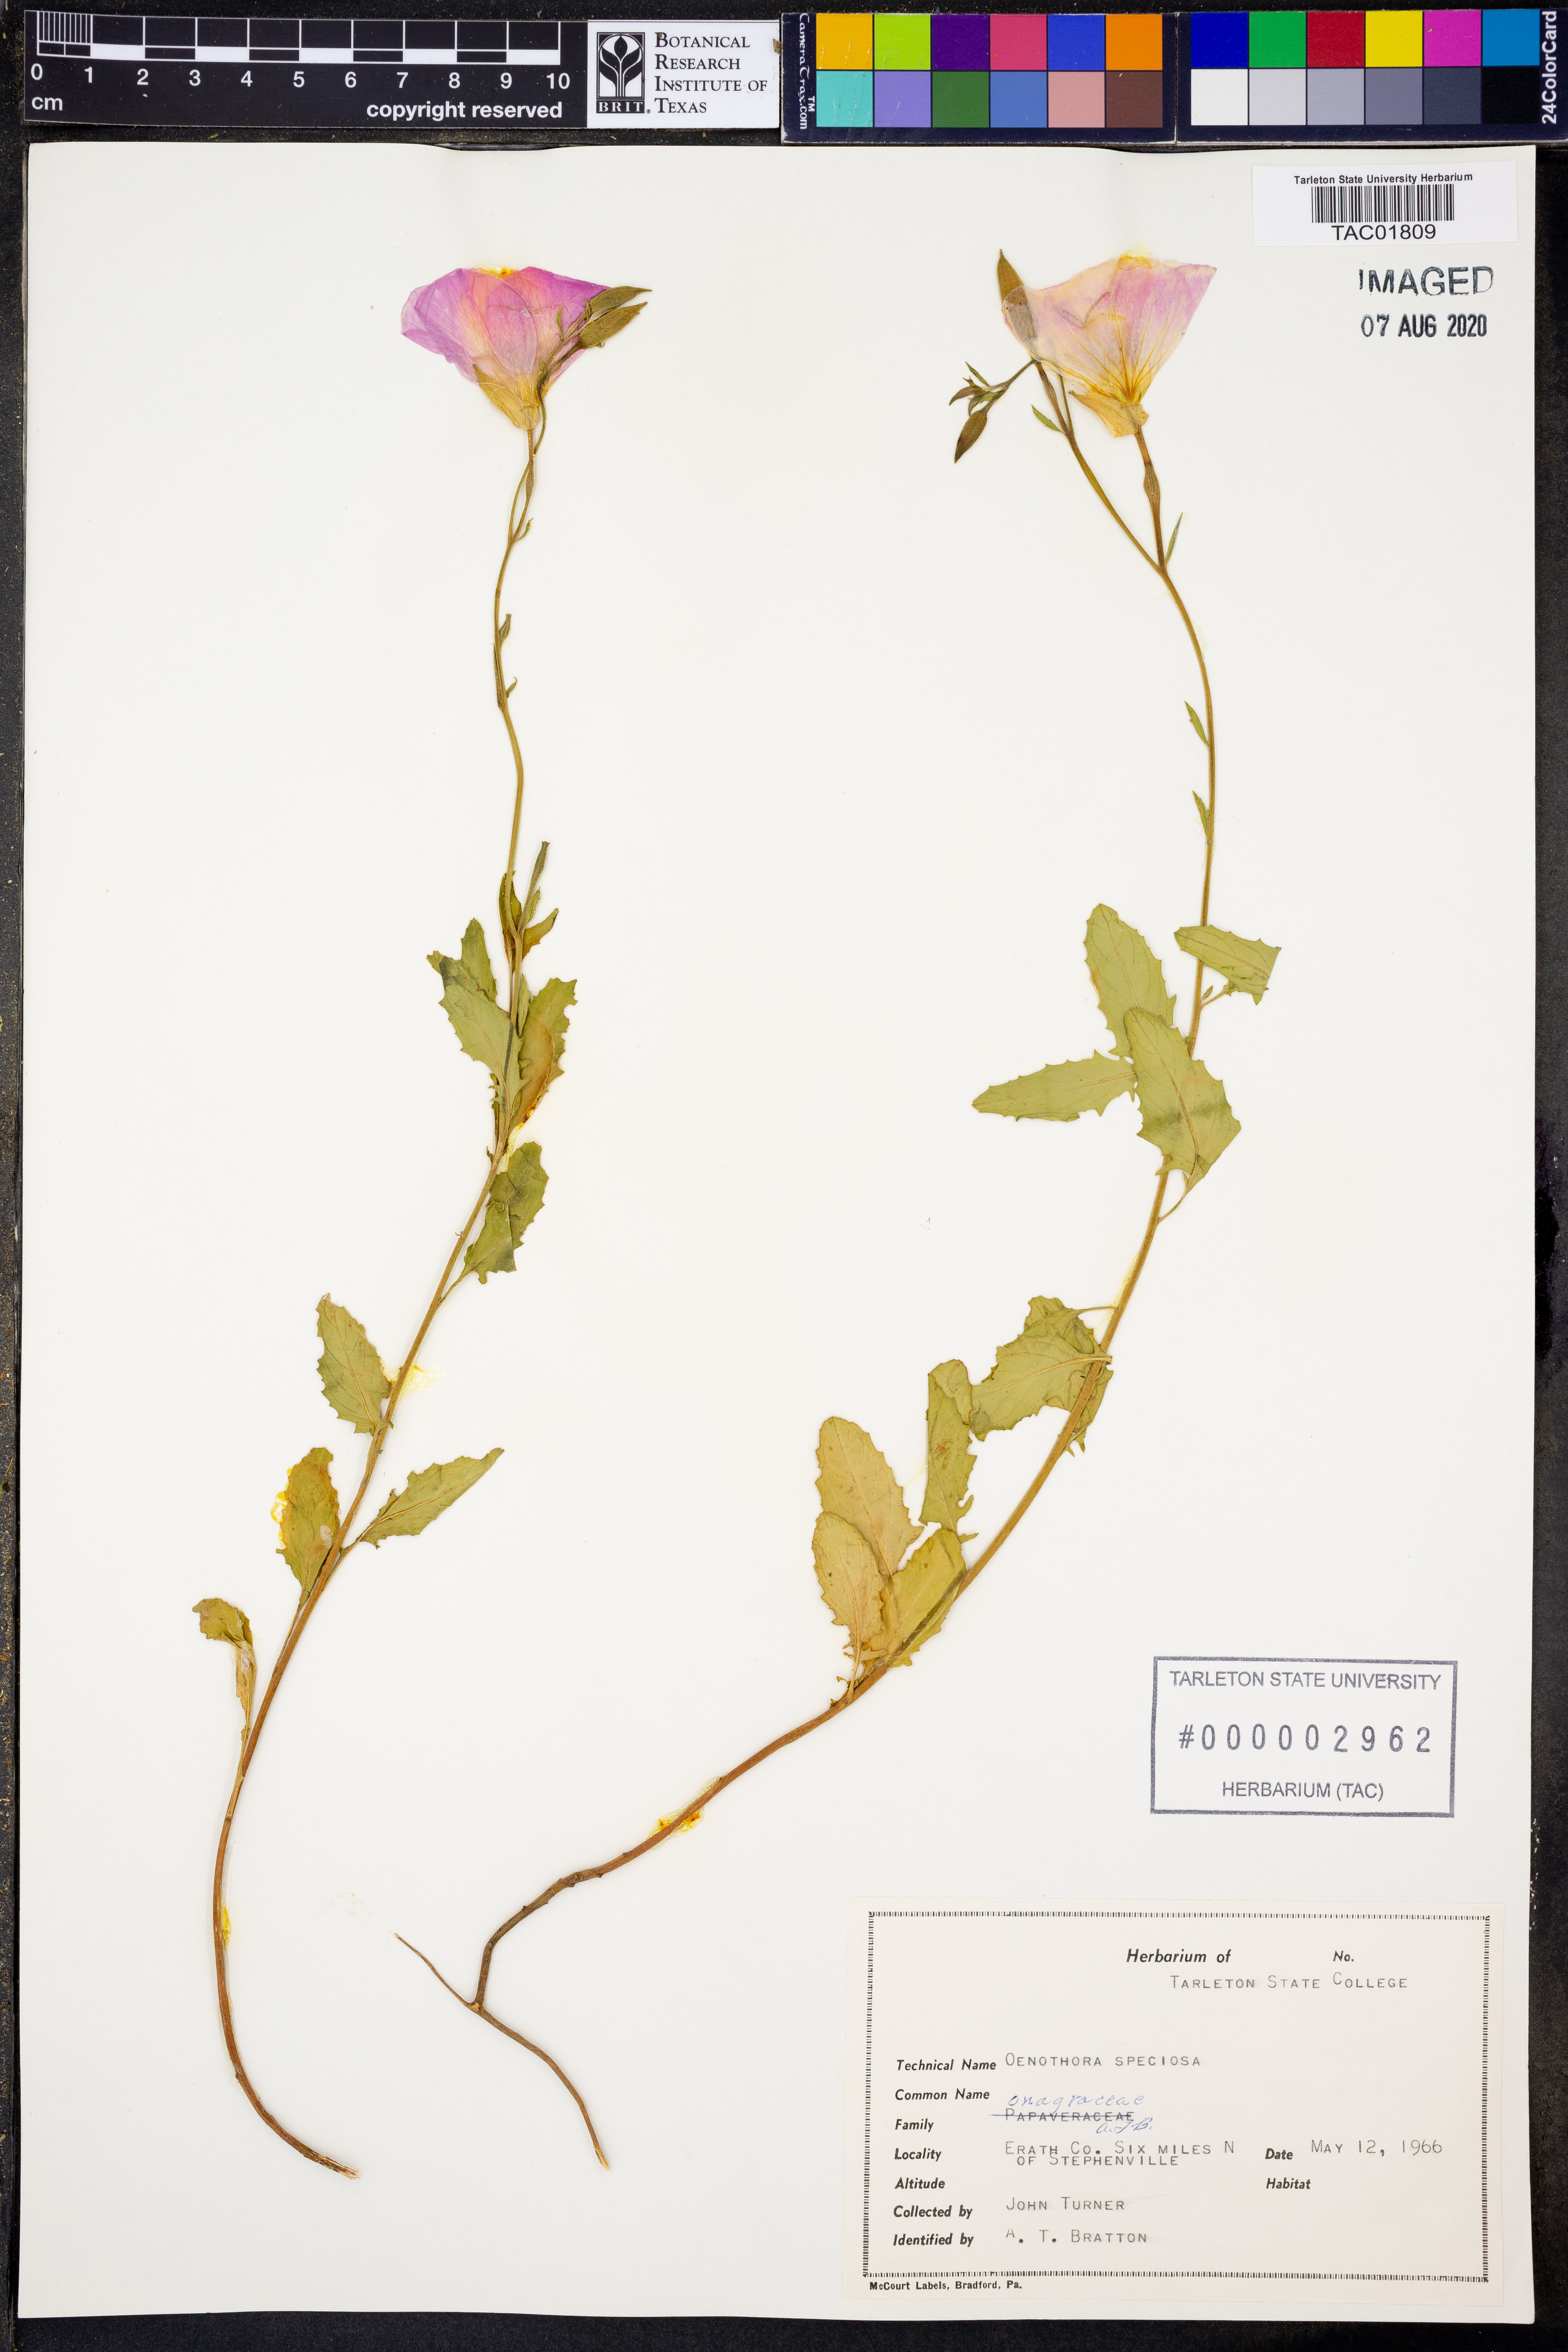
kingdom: Plantae
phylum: Tracheophyta
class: Magnoliopsida
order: Myrtales
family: Onagraceae
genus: Oenothera
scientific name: Oenothera speciosa
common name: White evening-primrose
